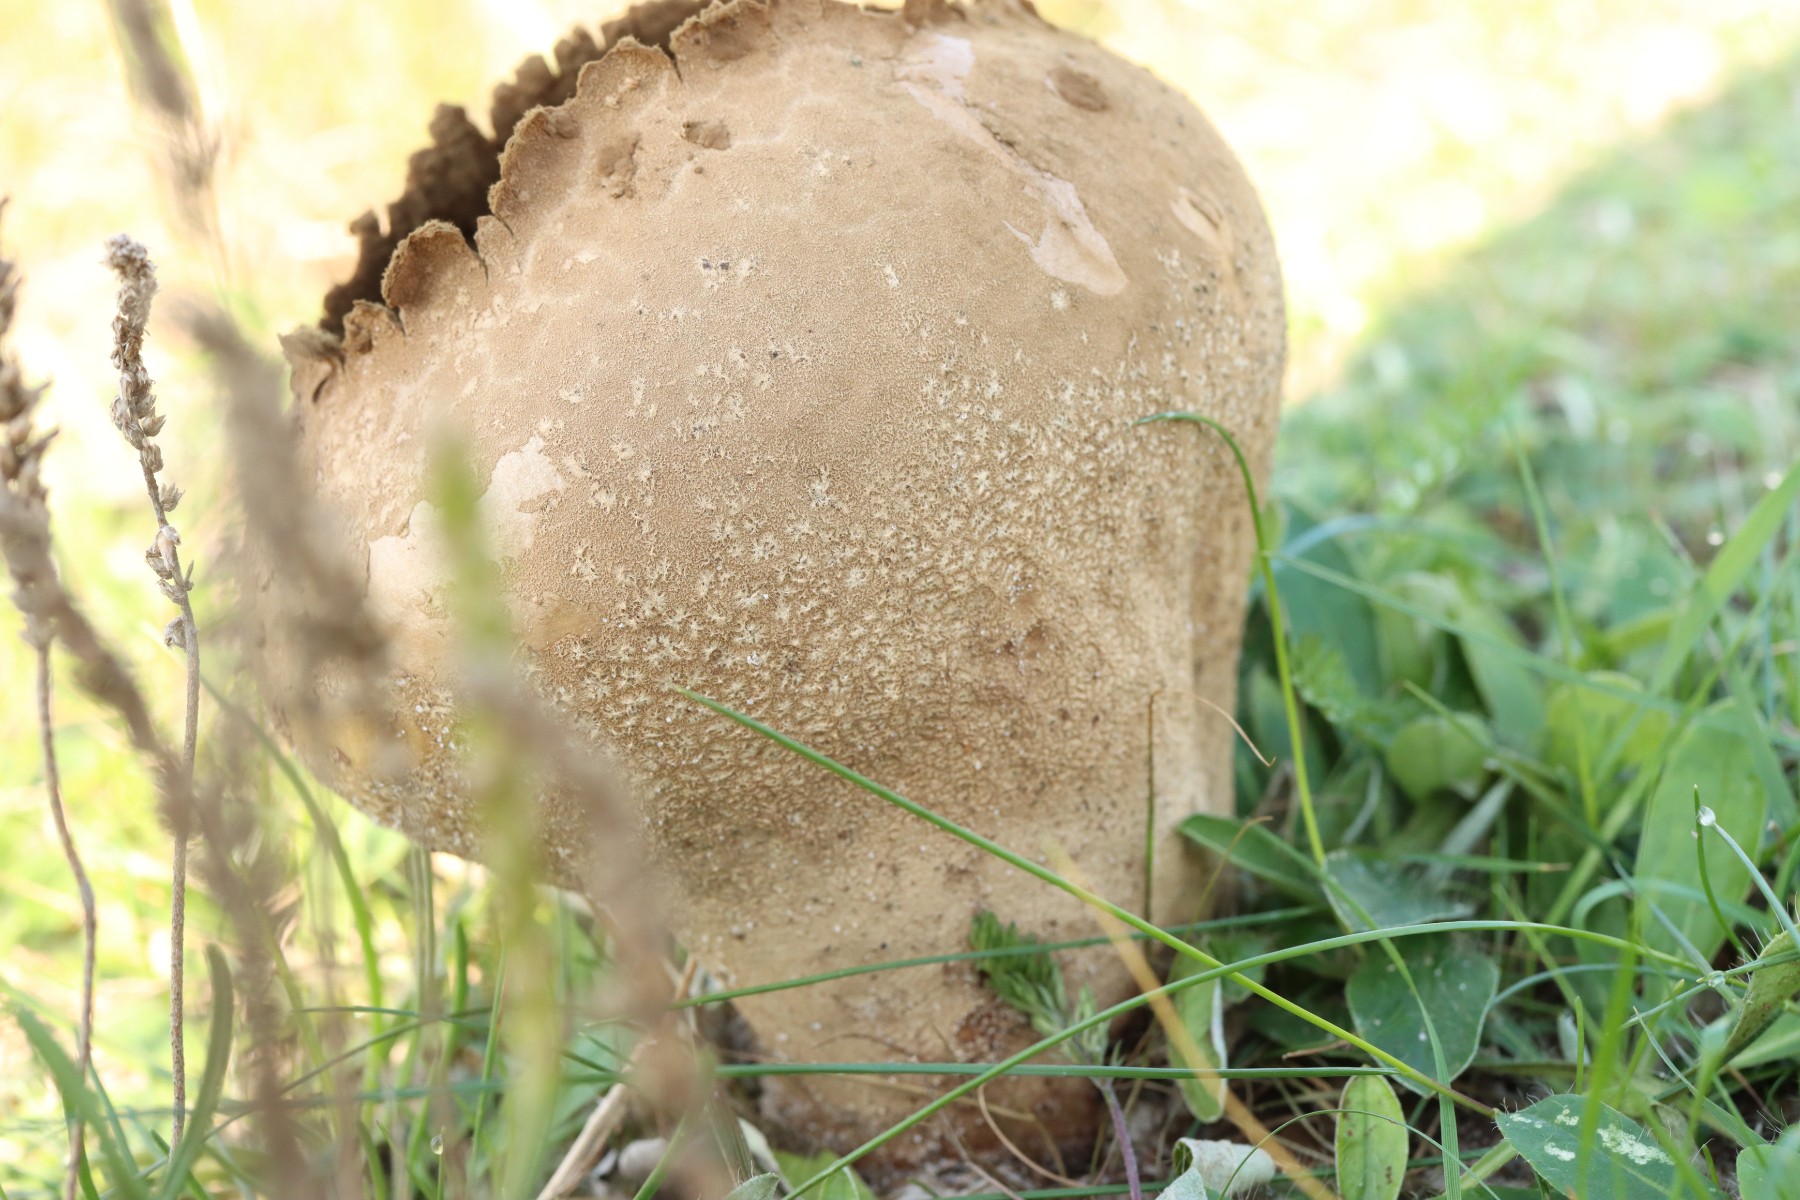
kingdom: Fungi
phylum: Basidiomycota
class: Agaricomycetes
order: Agaricales
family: Lycoperdaceae
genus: Bovistella
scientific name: Bovistella utriformis
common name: skællet støvbold
